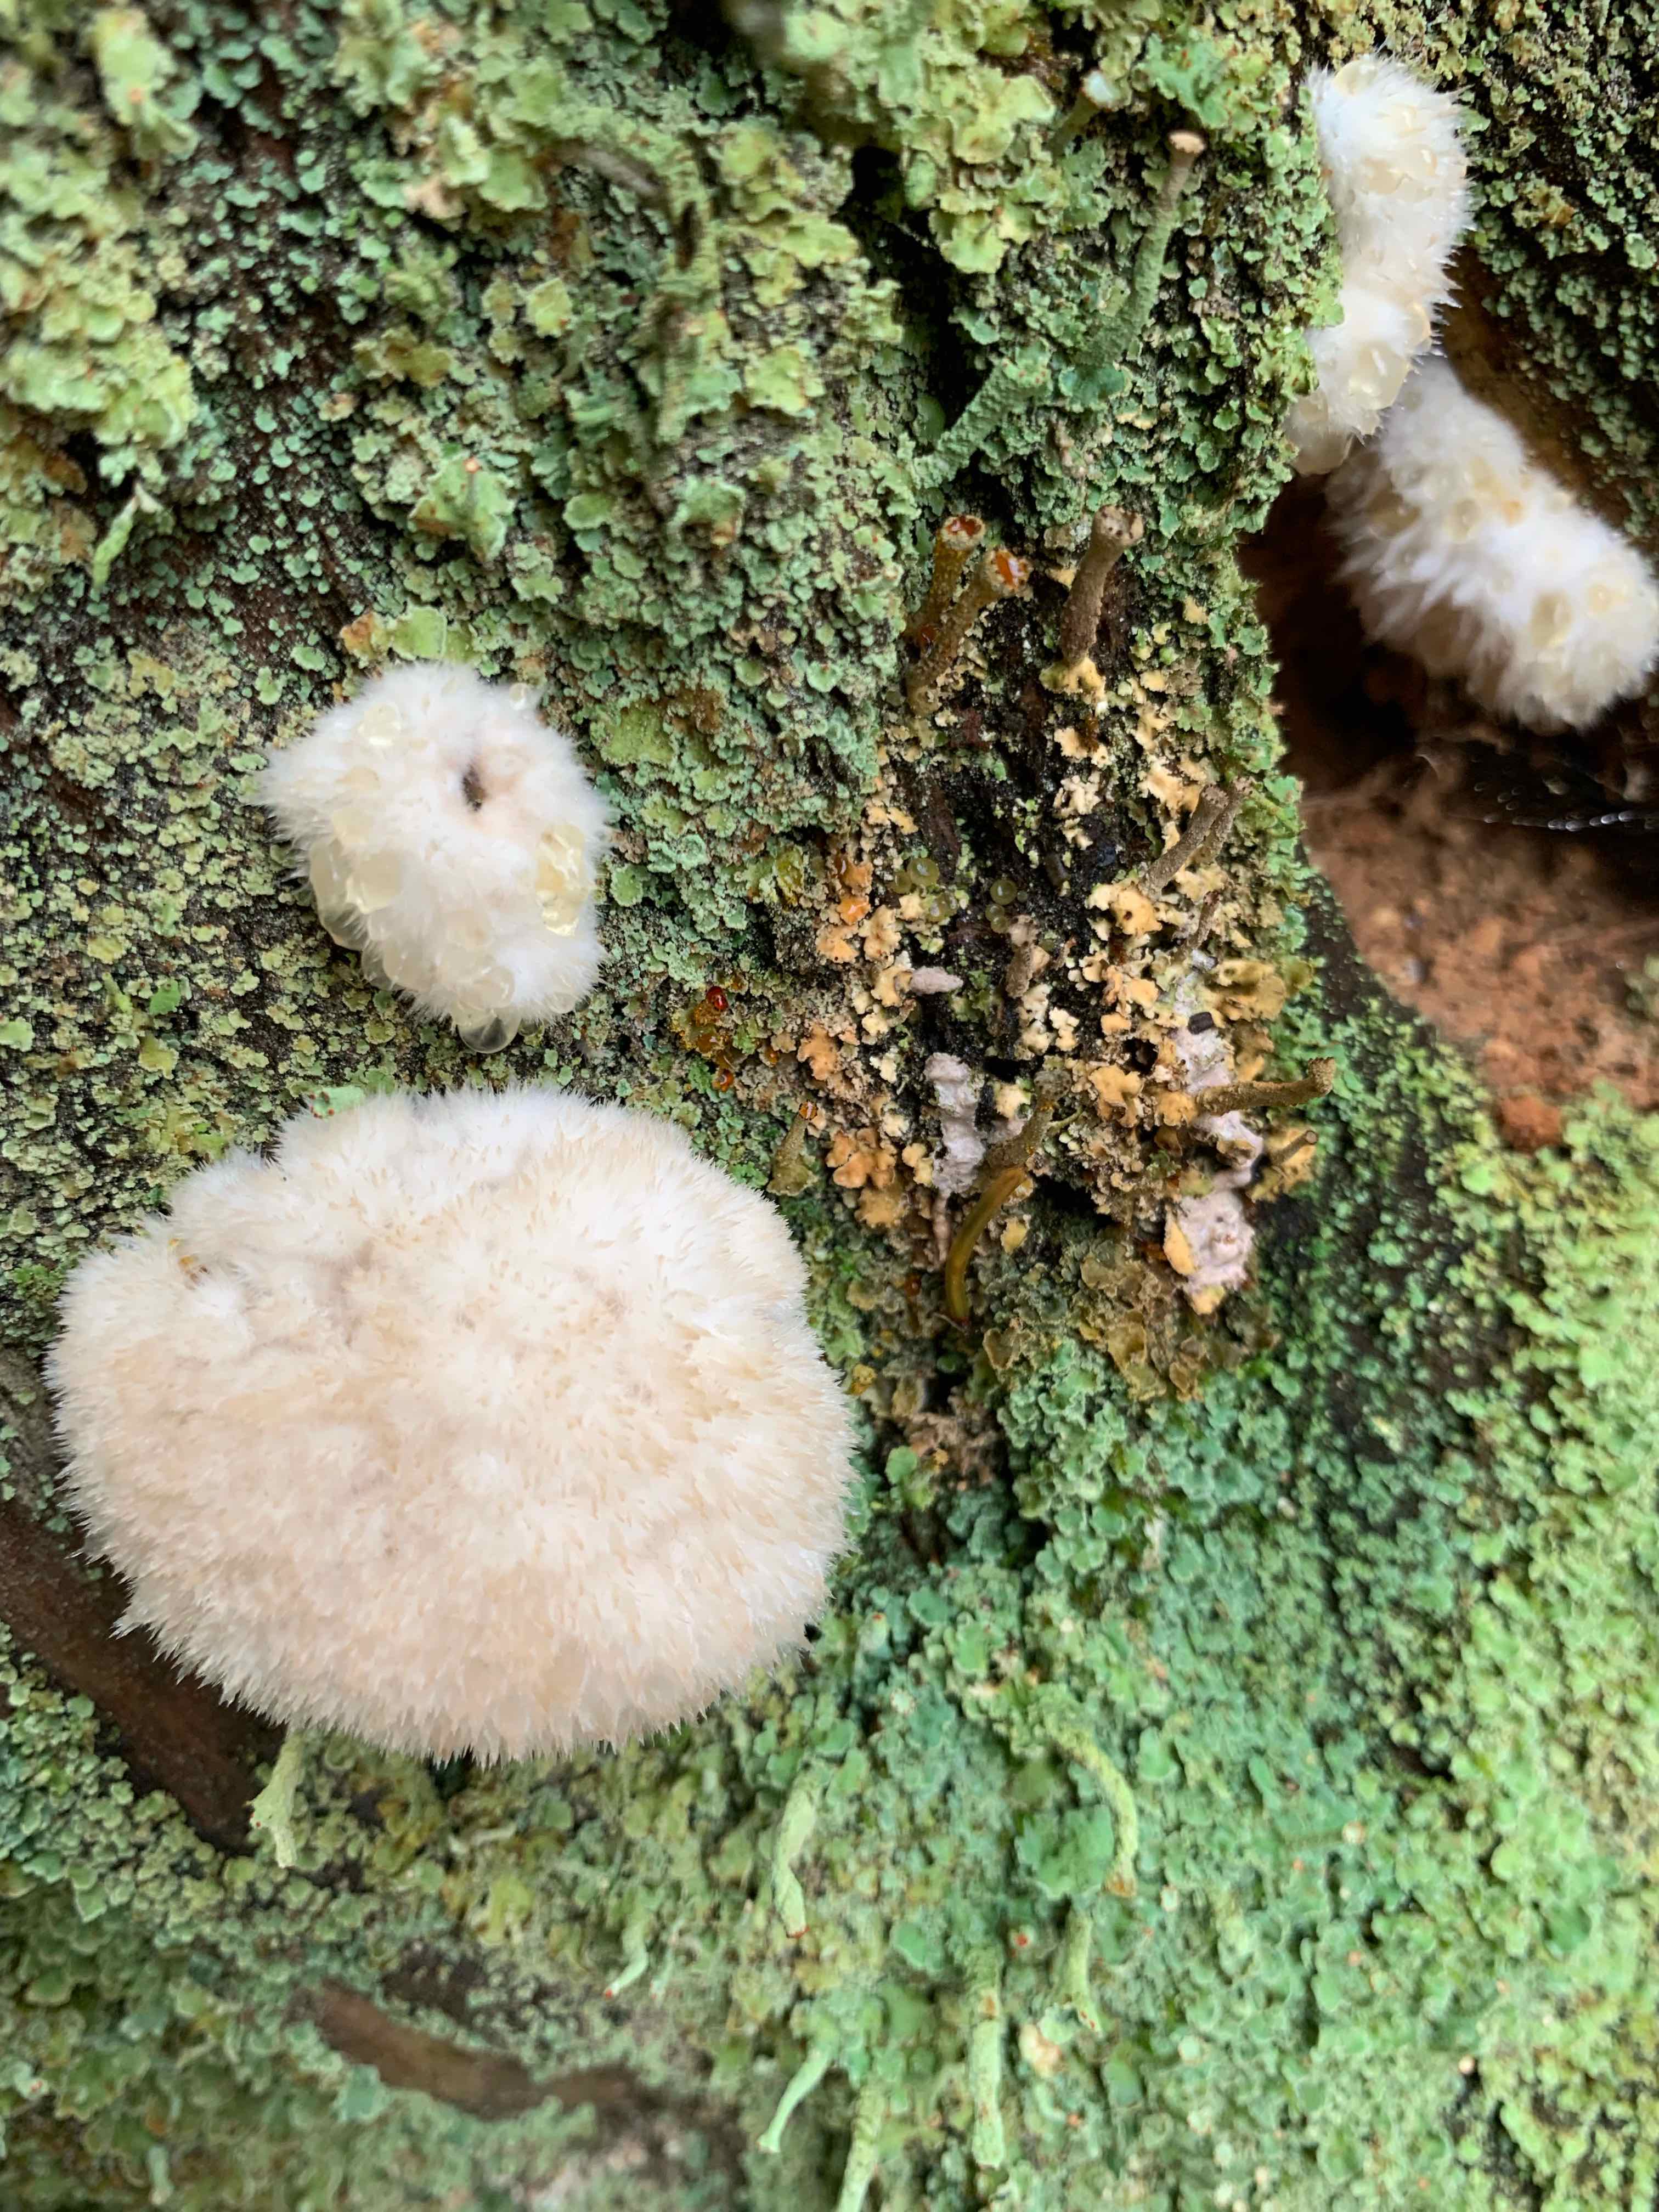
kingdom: Fungi
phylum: Basidiomycota
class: Agaricomycetes
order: Polyporales
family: Dacryobolaceae
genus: Postia
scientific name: Postia ptychogaster
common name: støvende kødporesvamp
